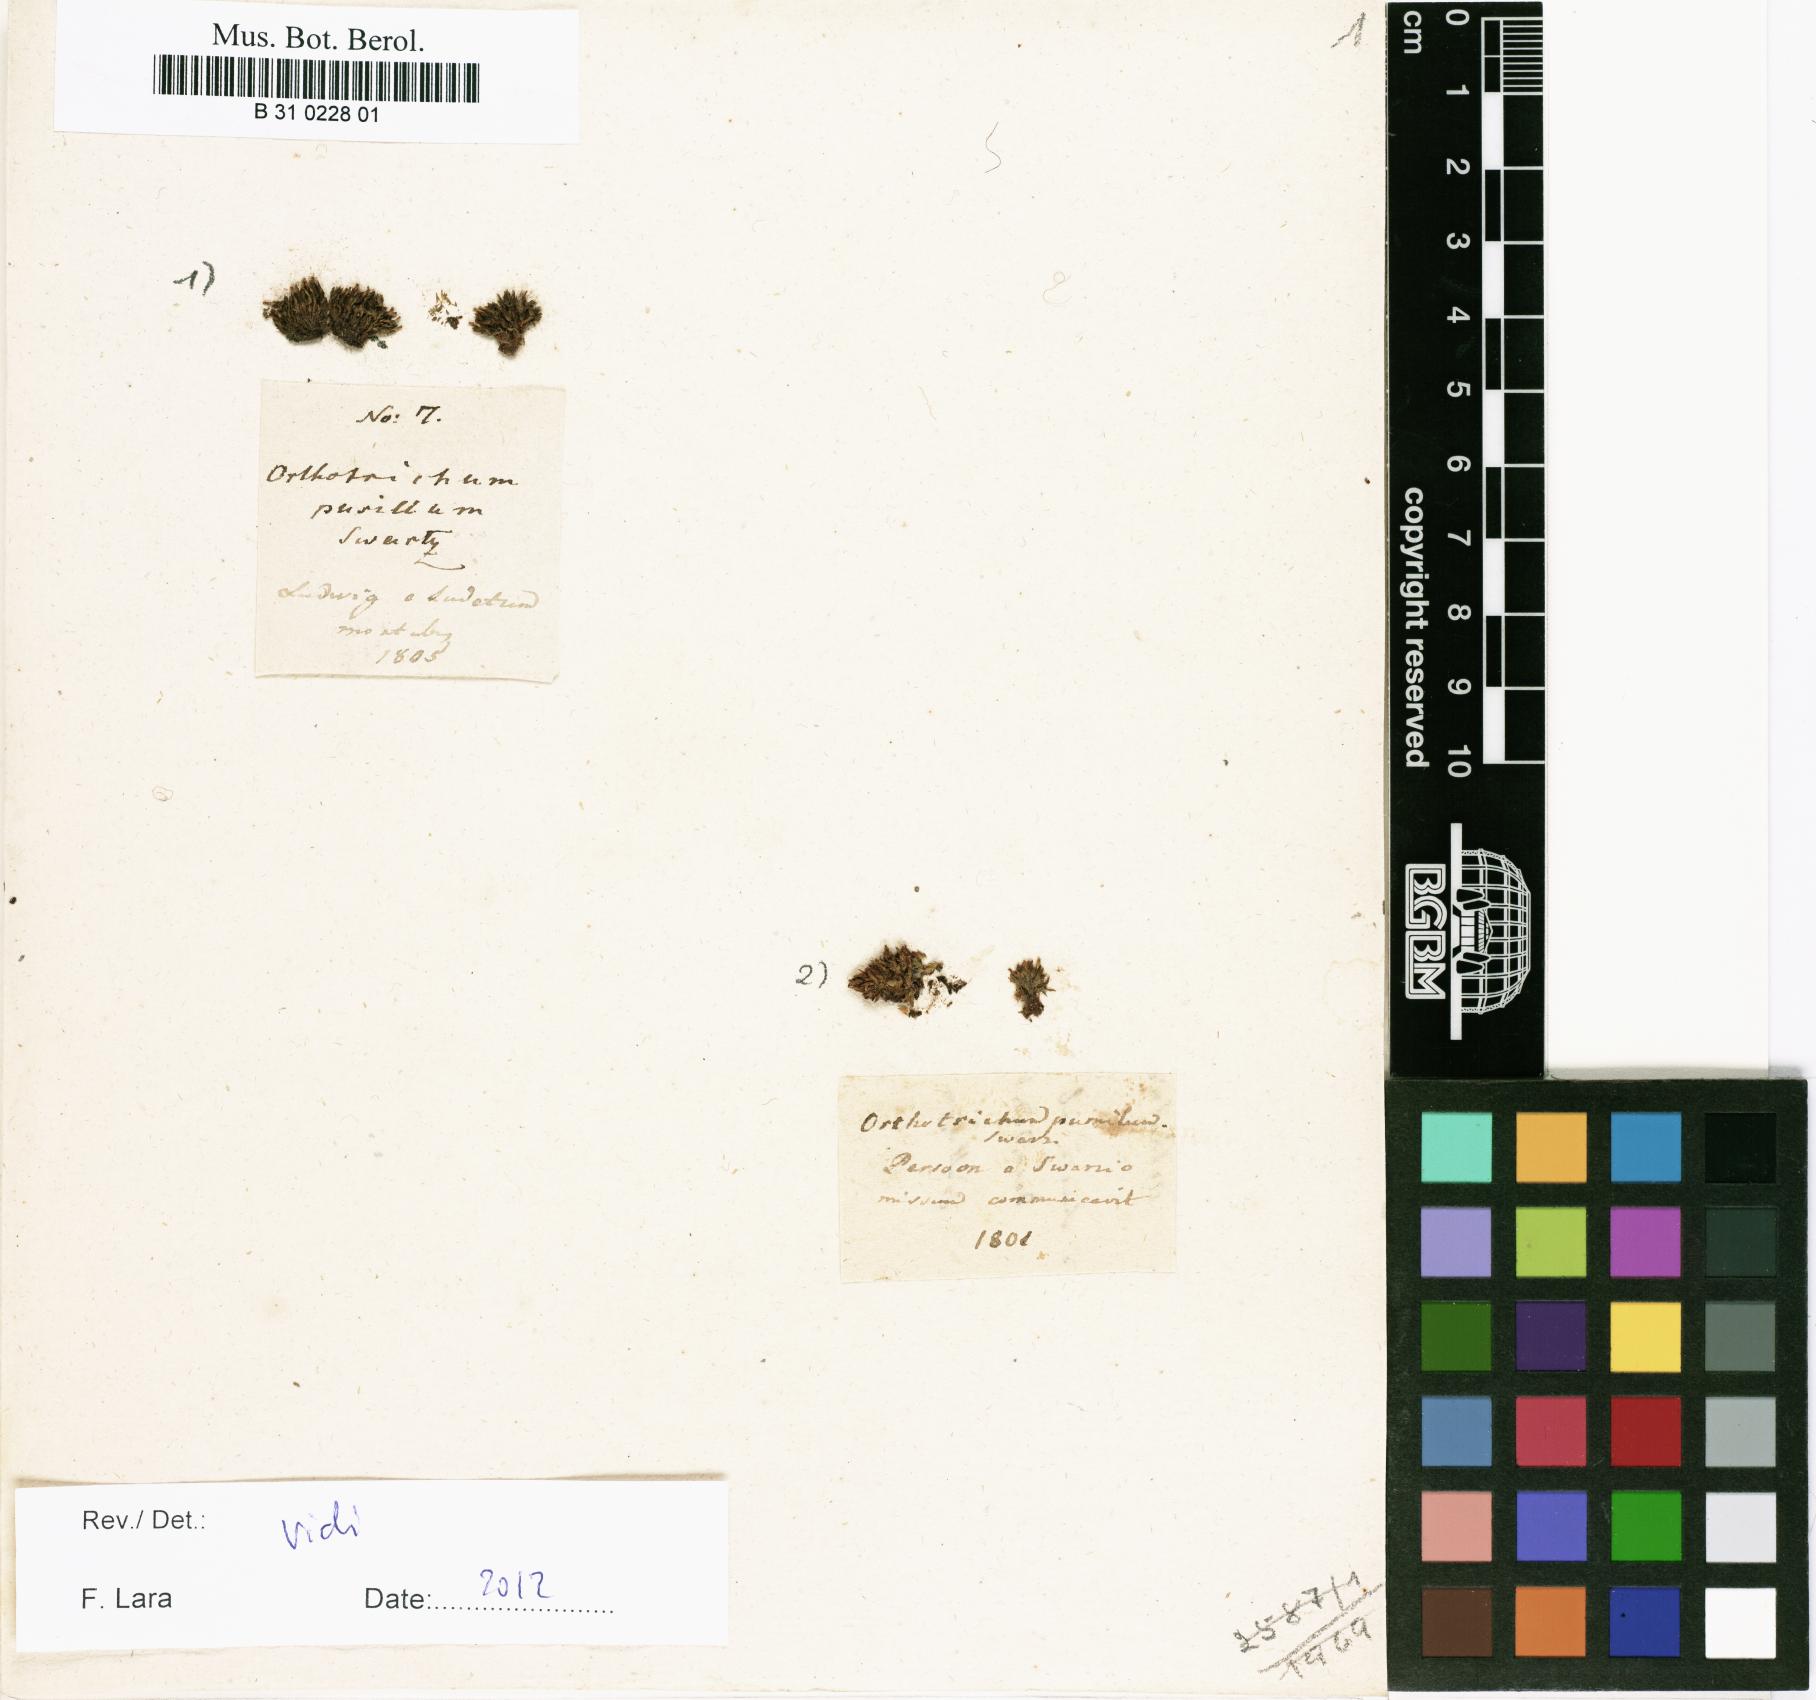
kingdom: Plantae
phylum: Bryophyta
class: Bryopsida
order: Orthotrichales
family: Orthotrichaceae
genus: Orthotrichum
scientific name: Orthotrichum pumilum
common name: Dwarf bristle moss
